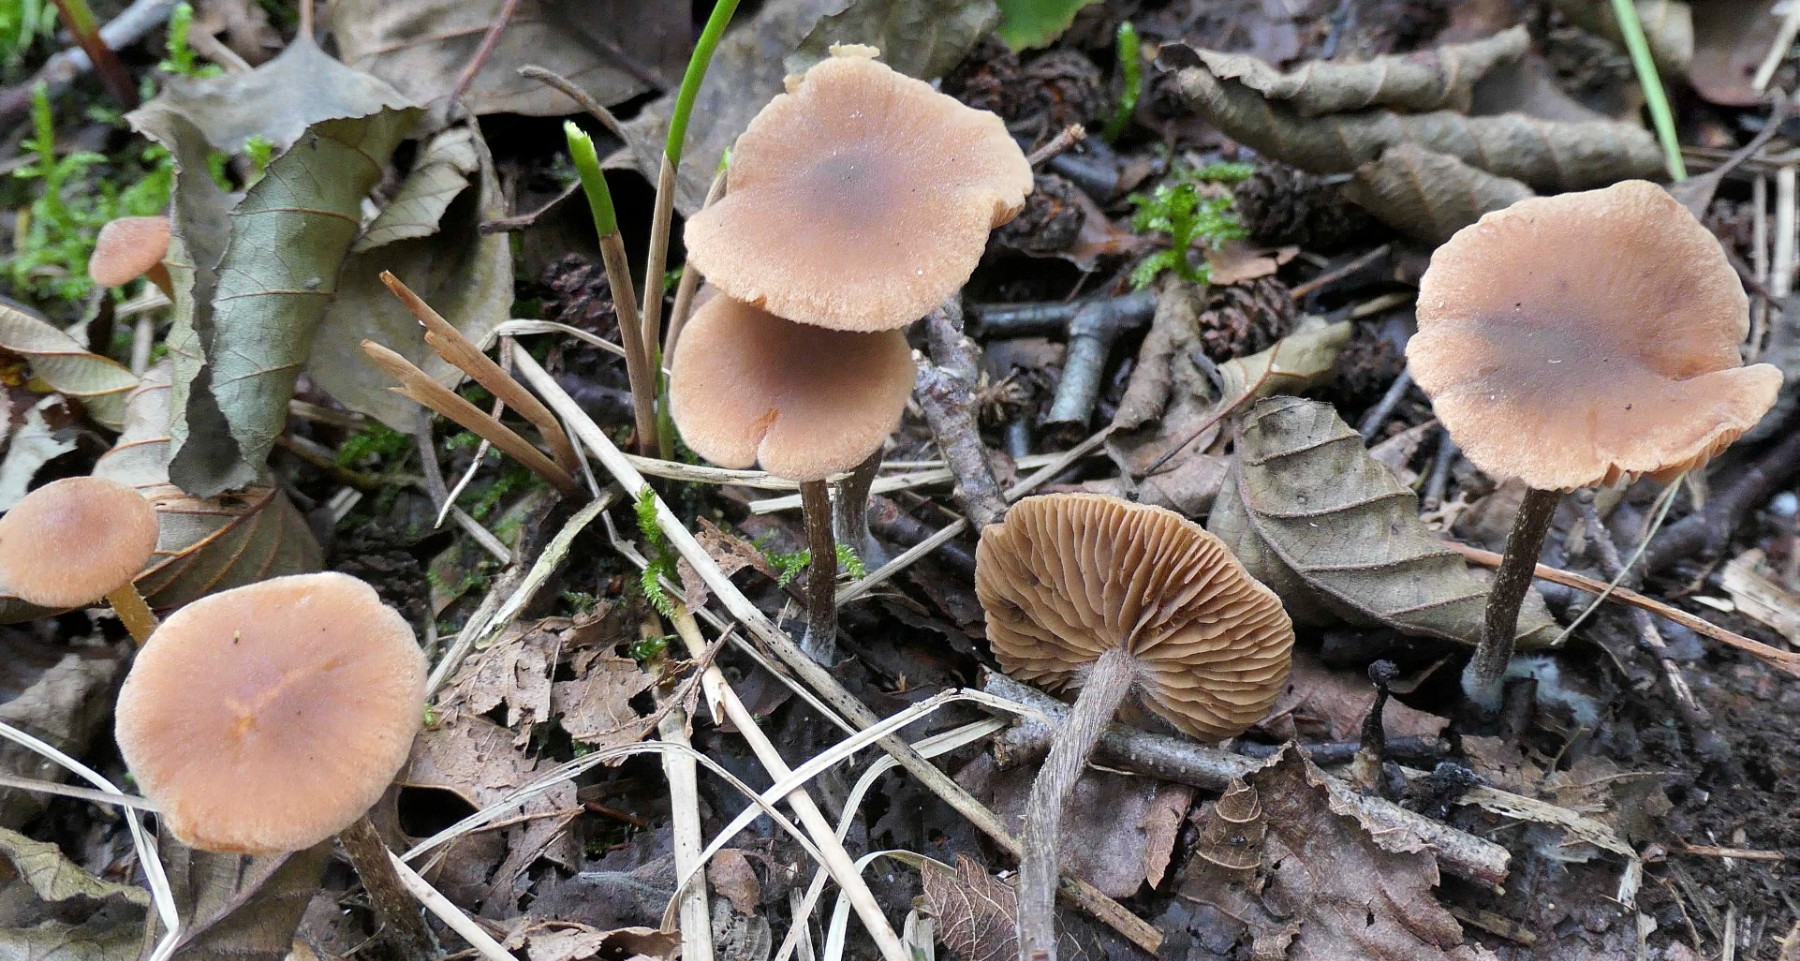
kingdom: Fungi
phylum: Basidiomycota
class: Agaricomycetes
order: Agaricales
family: Hymenogastraceae
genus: Naucoria
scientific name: Naucoria sphagneti
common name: lysrandet knaphat
